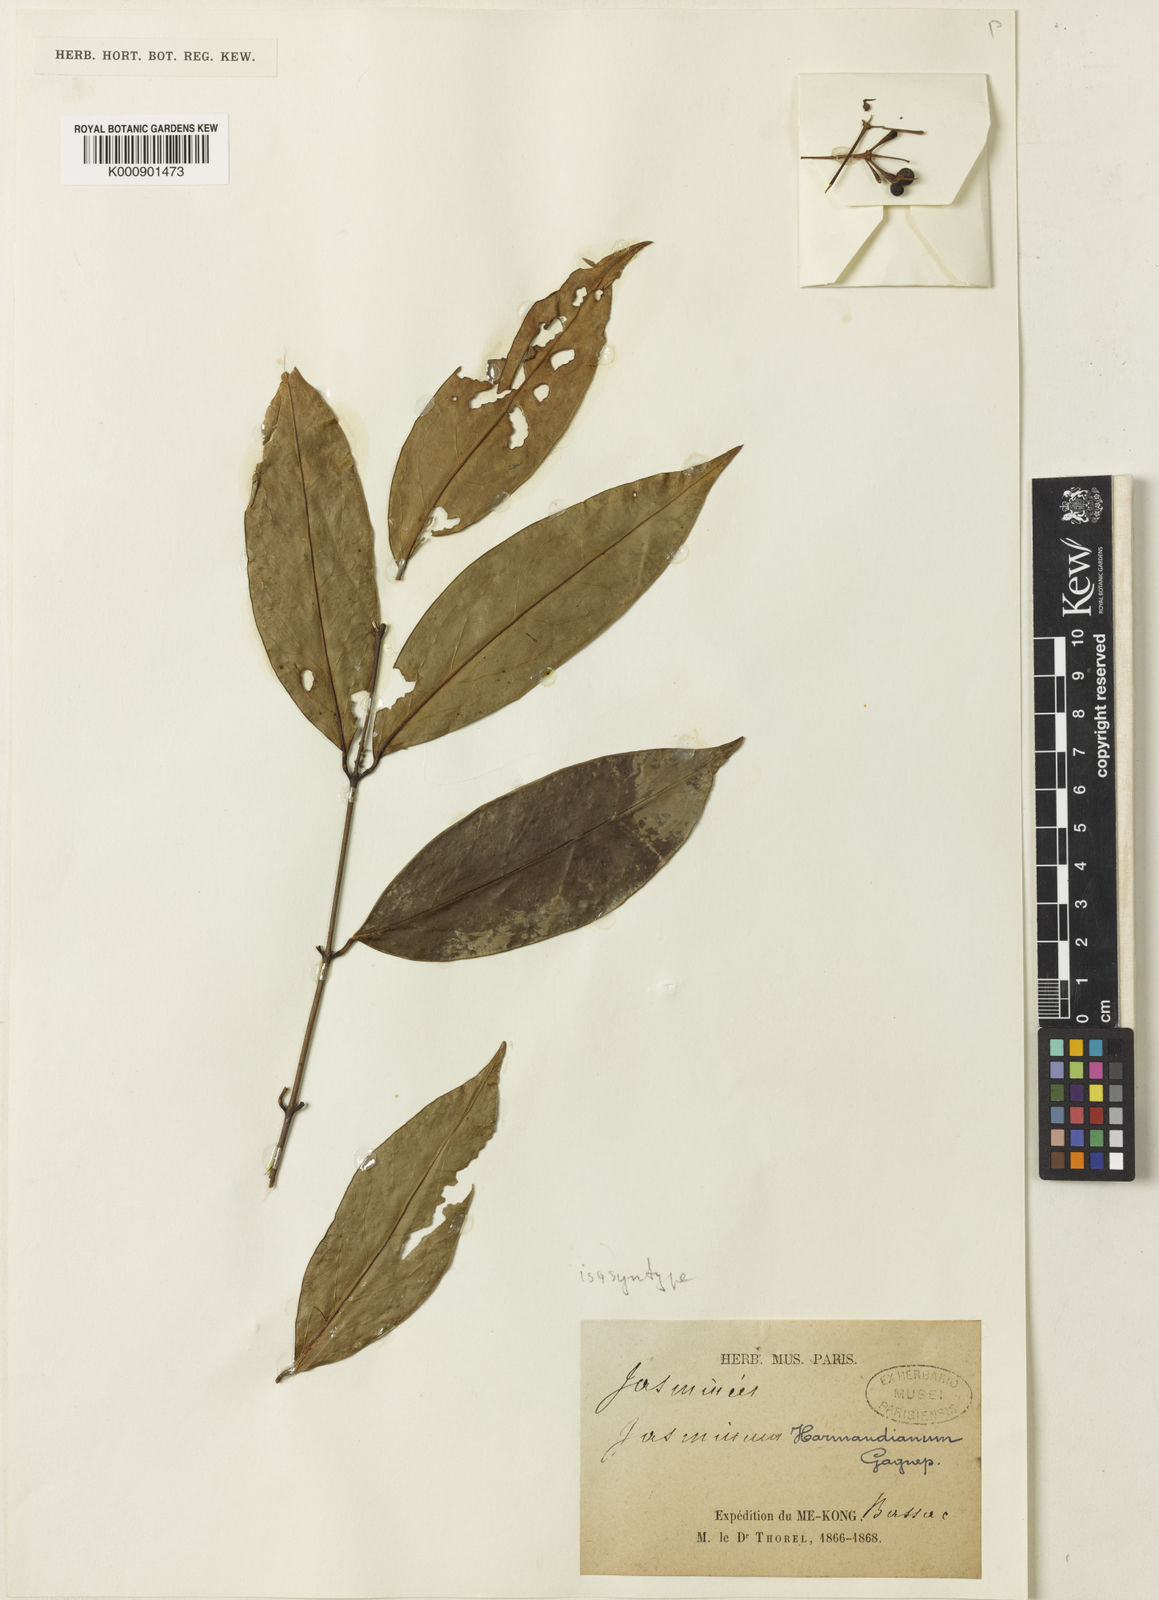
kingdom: Plantae
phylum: Tracheophyta
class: Magnoliopsida
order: Lamiales
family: Oleaceae
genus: Jasminum
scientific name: Jasminum harmandianum
